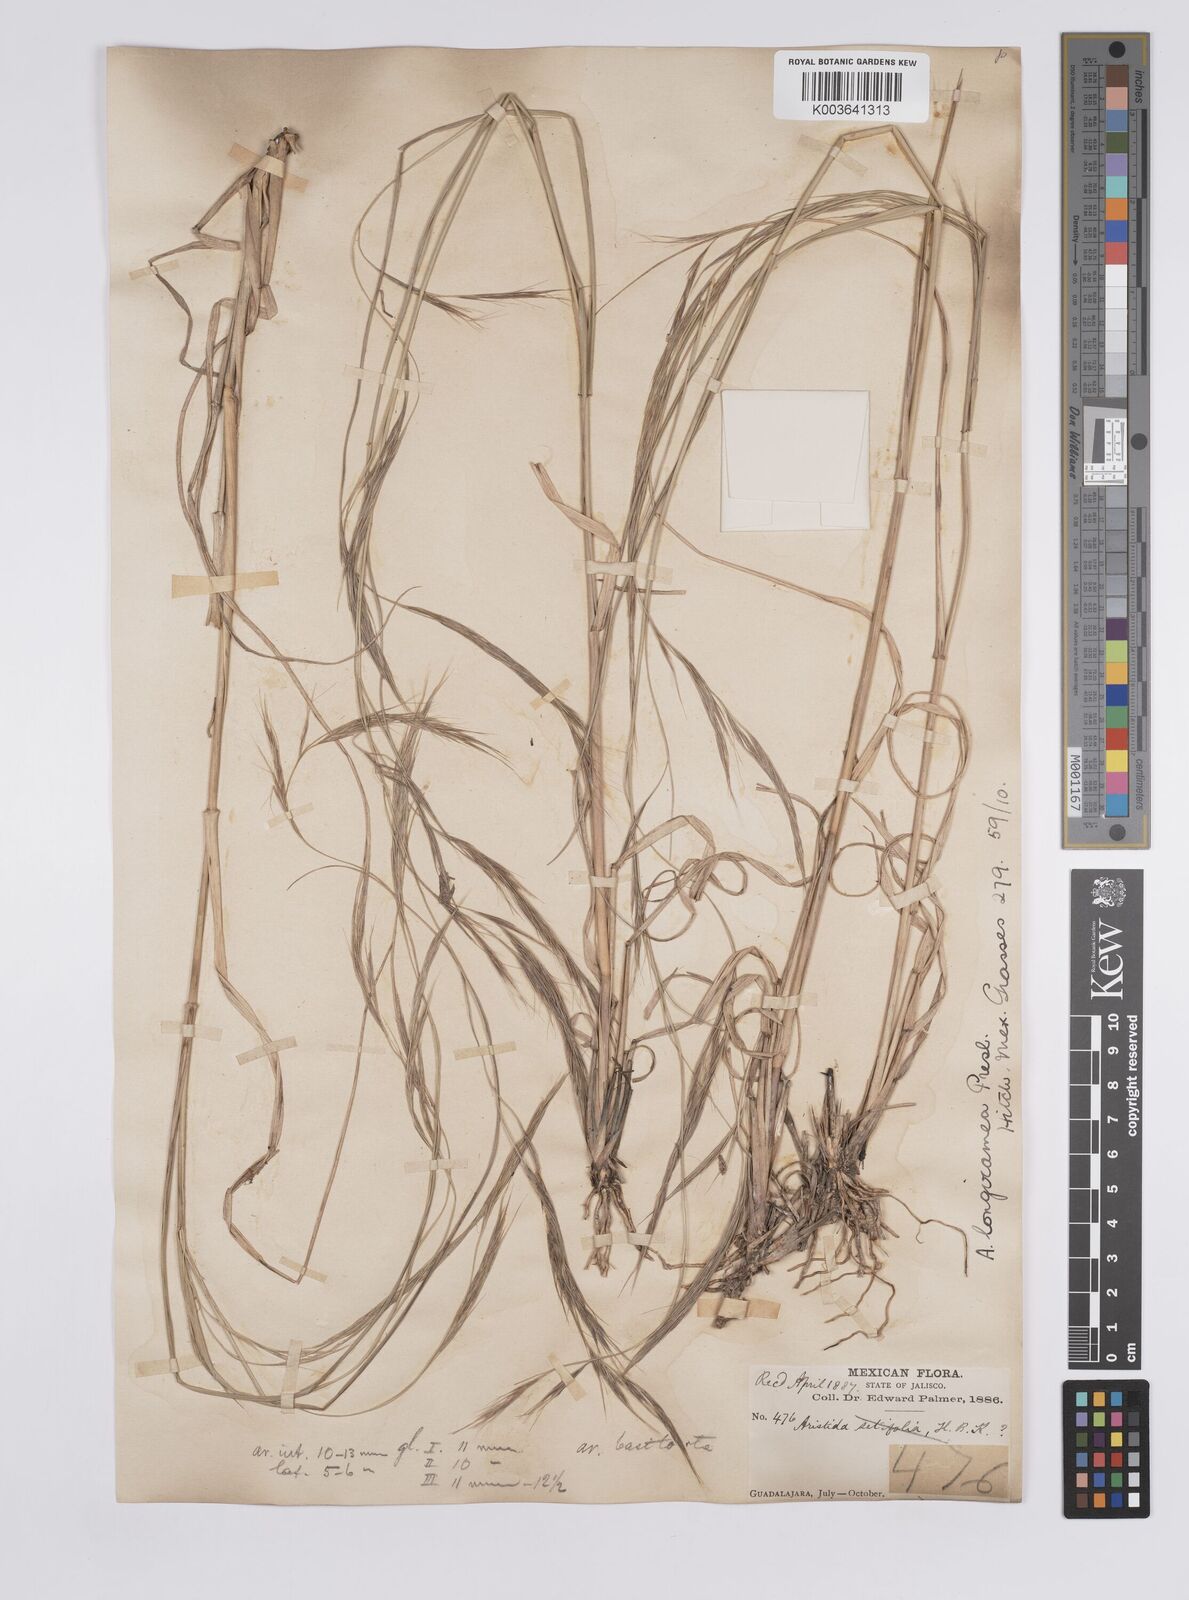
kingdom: Plantae
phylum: Tracheophyta
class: Liliopsida
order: Poales
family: Poaceae
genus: Aristida
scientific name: Aristida laxa
